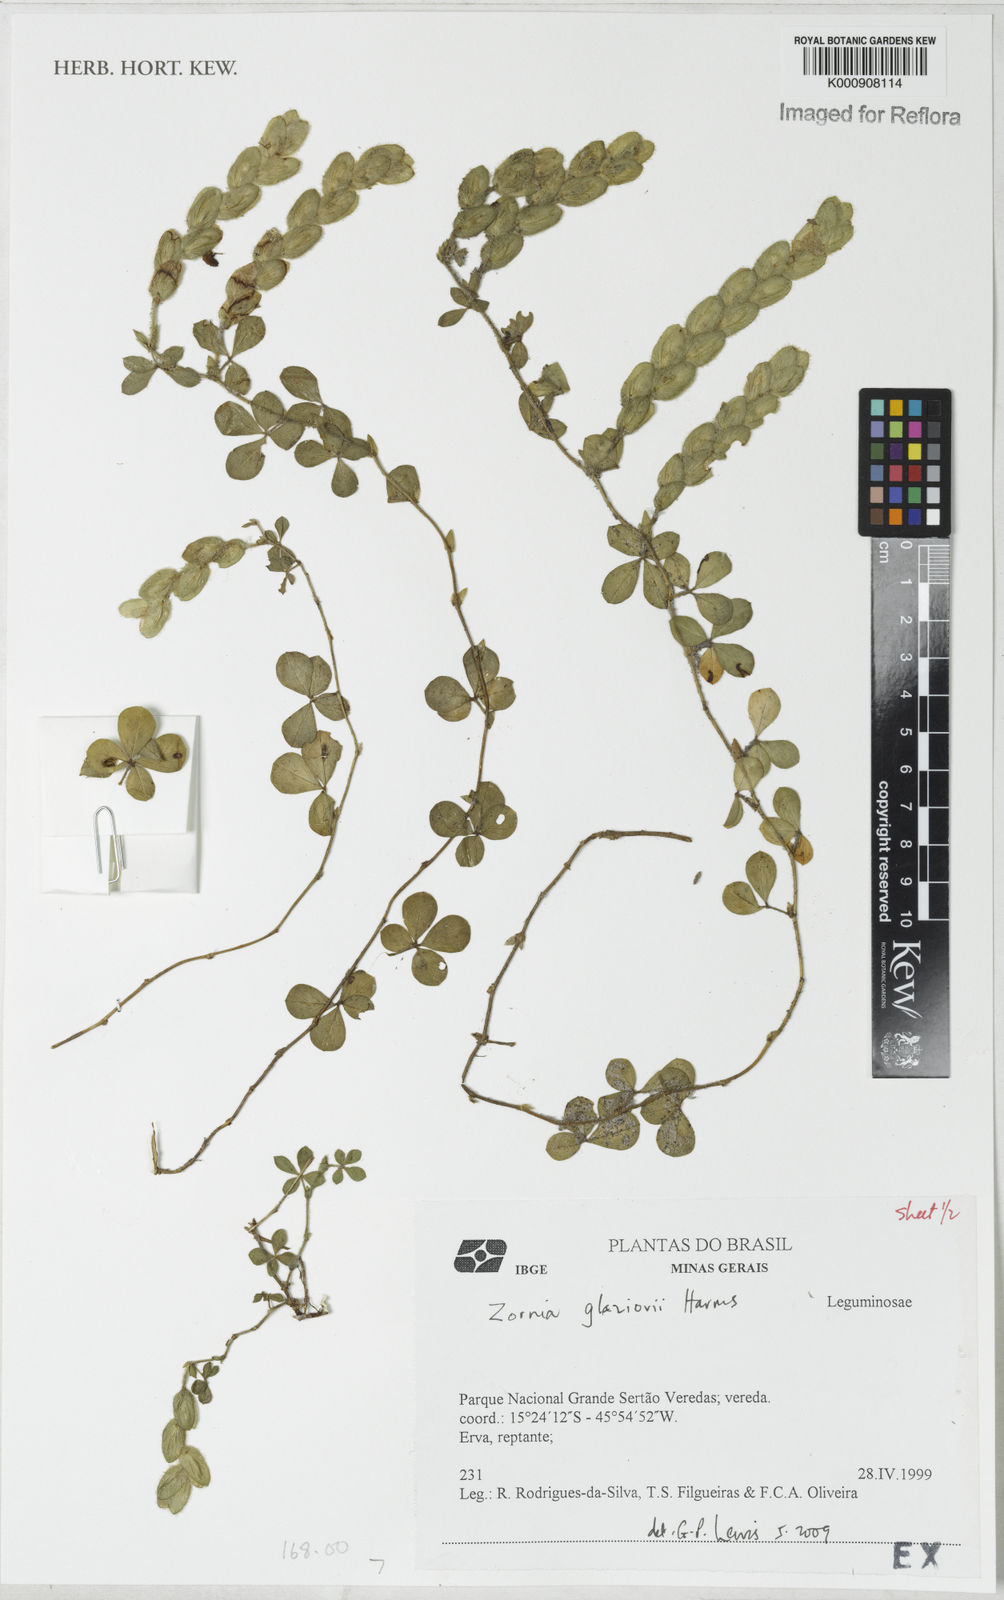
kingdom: Plantae
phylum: Tracheophyta
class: Magnoliopsida
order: Fabales
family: Fabaceae
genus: Zornia
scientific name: Zornia glaziovii
